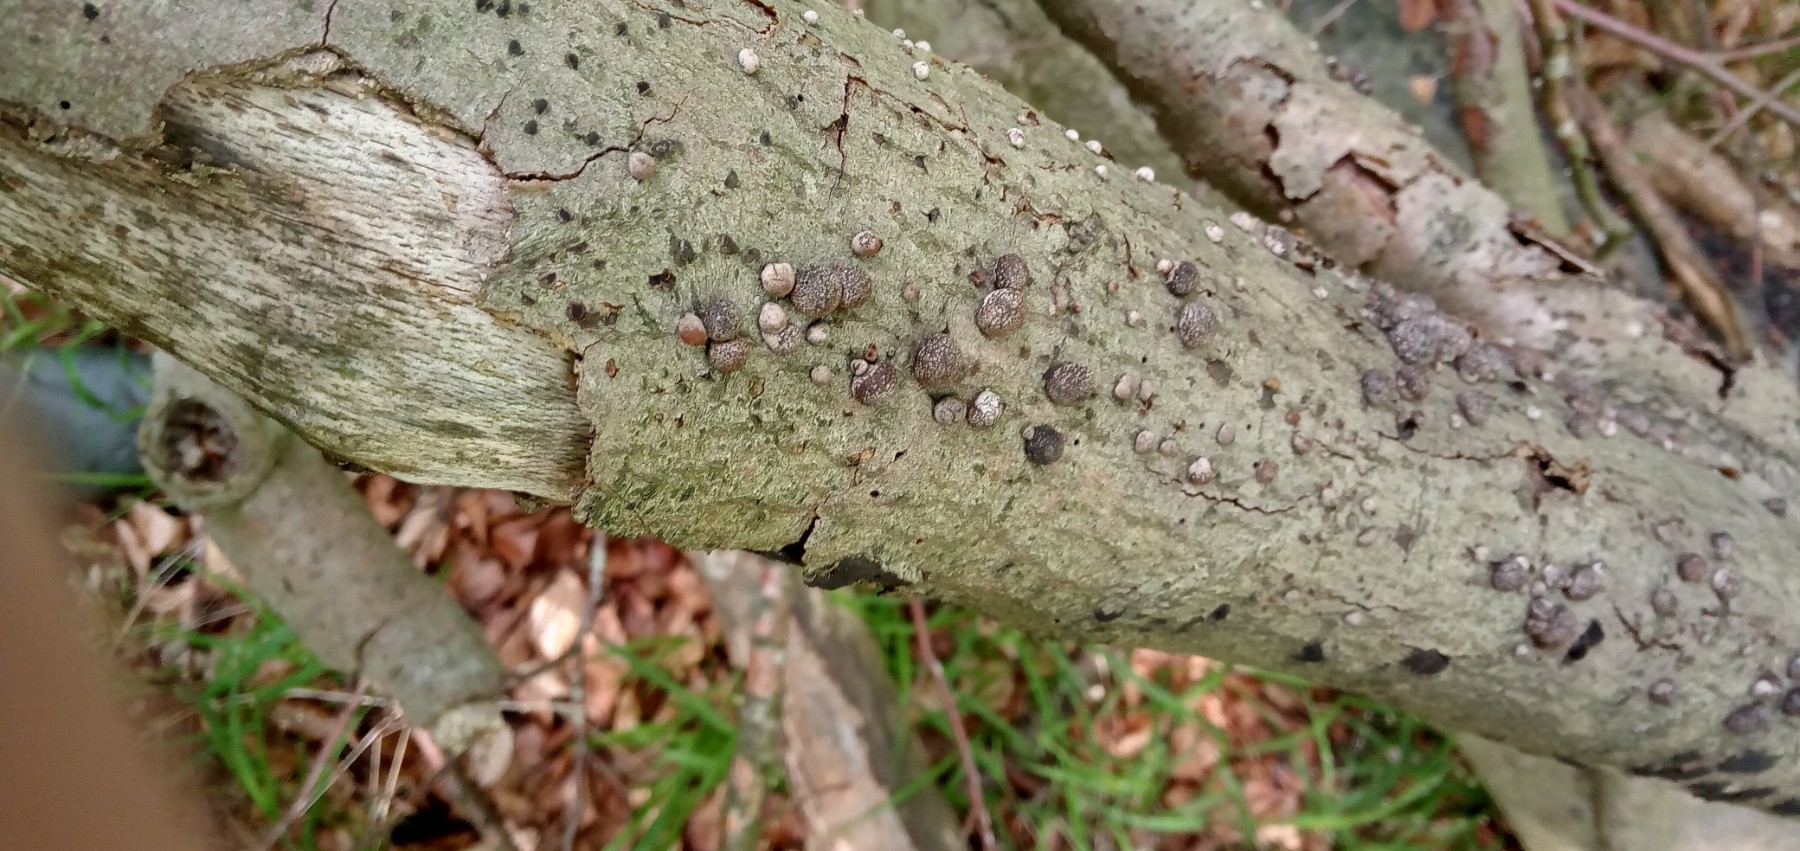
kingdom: Fungi
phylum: Ascomycota
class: Sordariomycetes
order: Xylariales
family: Hypoxylaceae
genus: Hypoxylon
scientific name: Hypoxylon fragiforme
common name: kuljordbær
